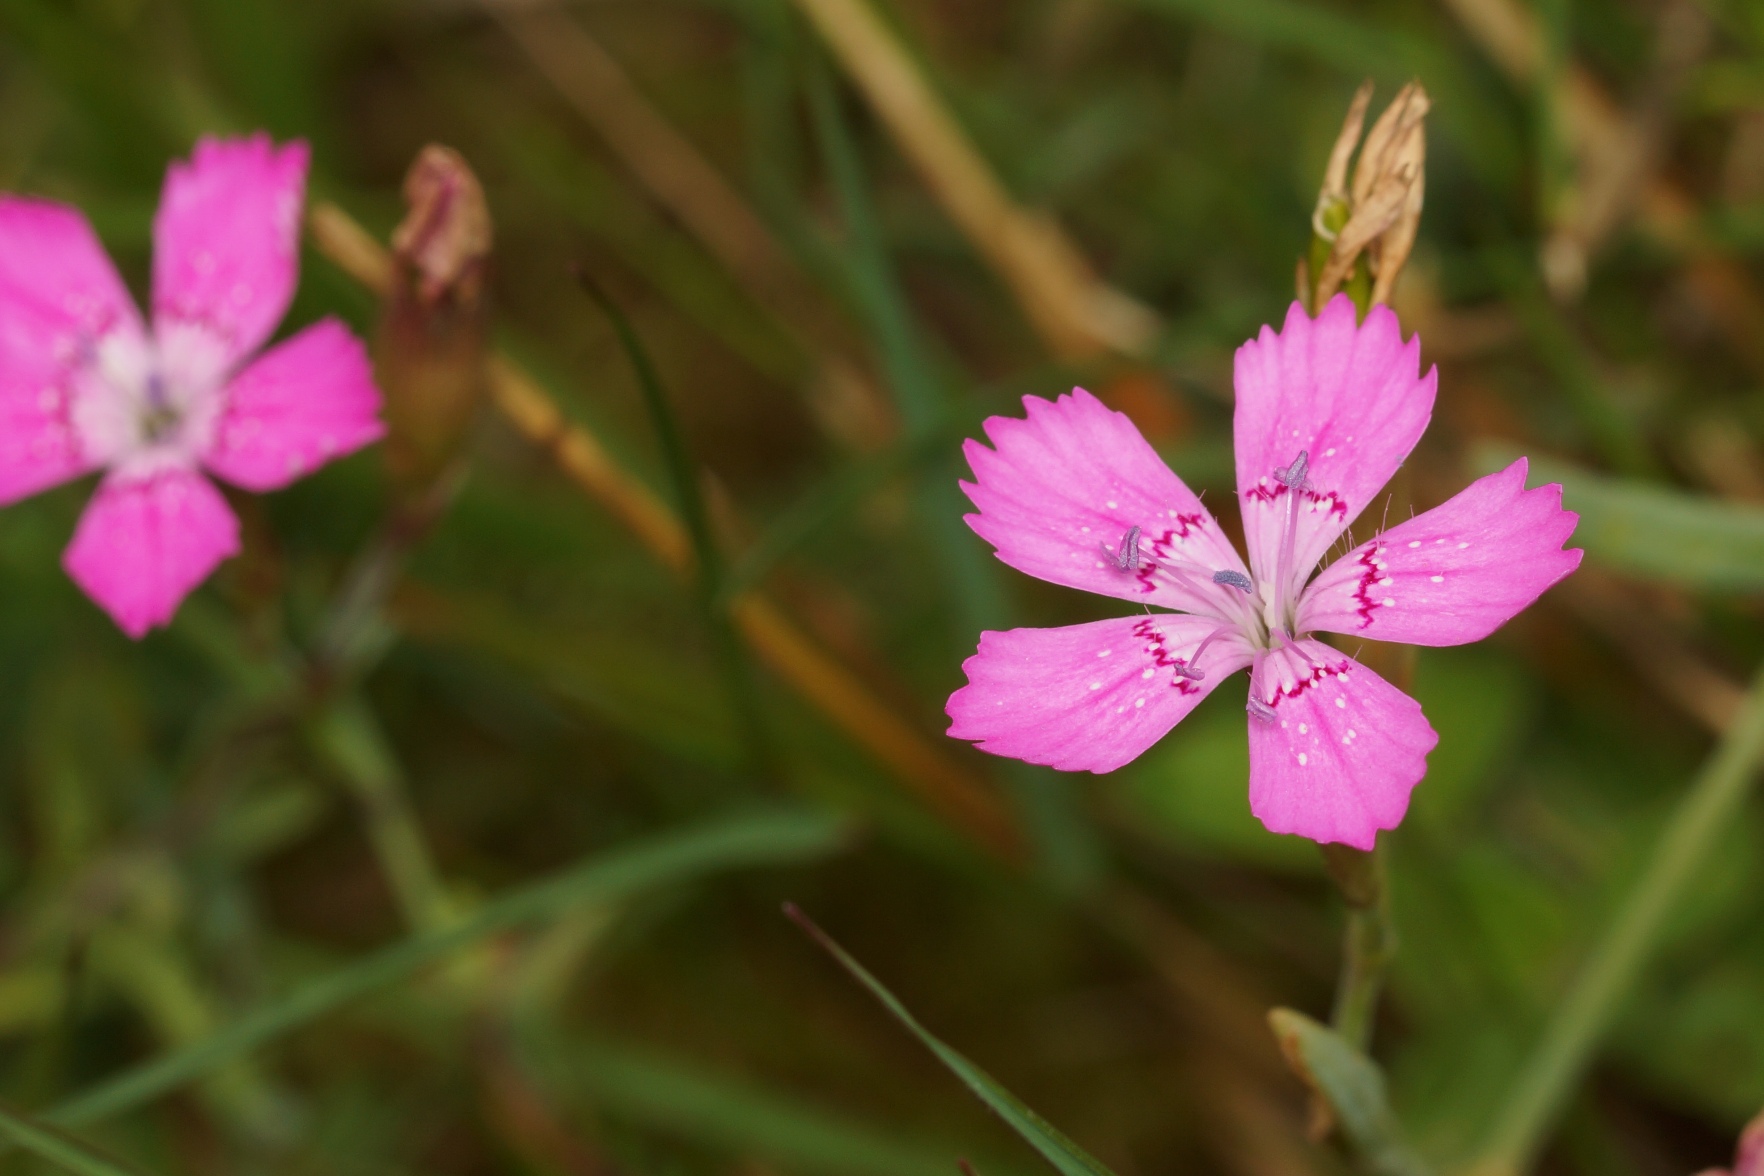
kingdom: Plantae
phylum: Tracheophyta
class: Magnoliopsida
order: Caryophyllales
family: Caryophyllaceae
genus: Dianthus
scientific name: Dianthus deltoides
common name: Bakke-nellike
